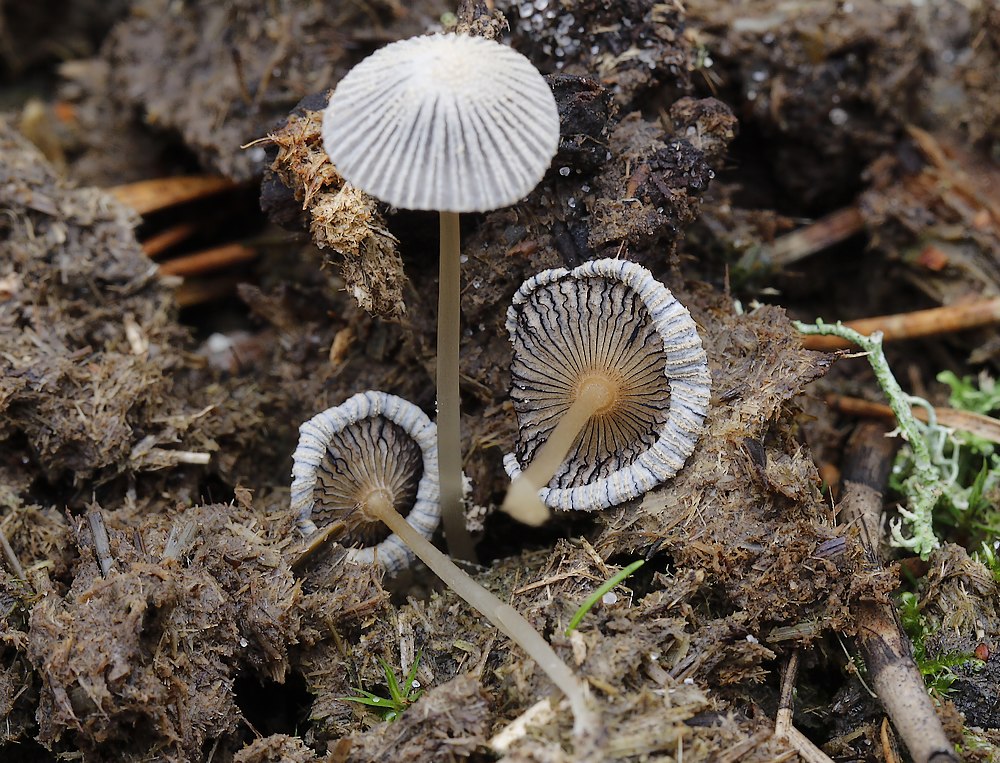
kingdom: Fungi
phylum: Basidiomycota
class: Agaricomycetes
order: Agaricales
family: Psathyrellaceae
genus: Parasola
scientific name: Parasola
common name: hjulhat
